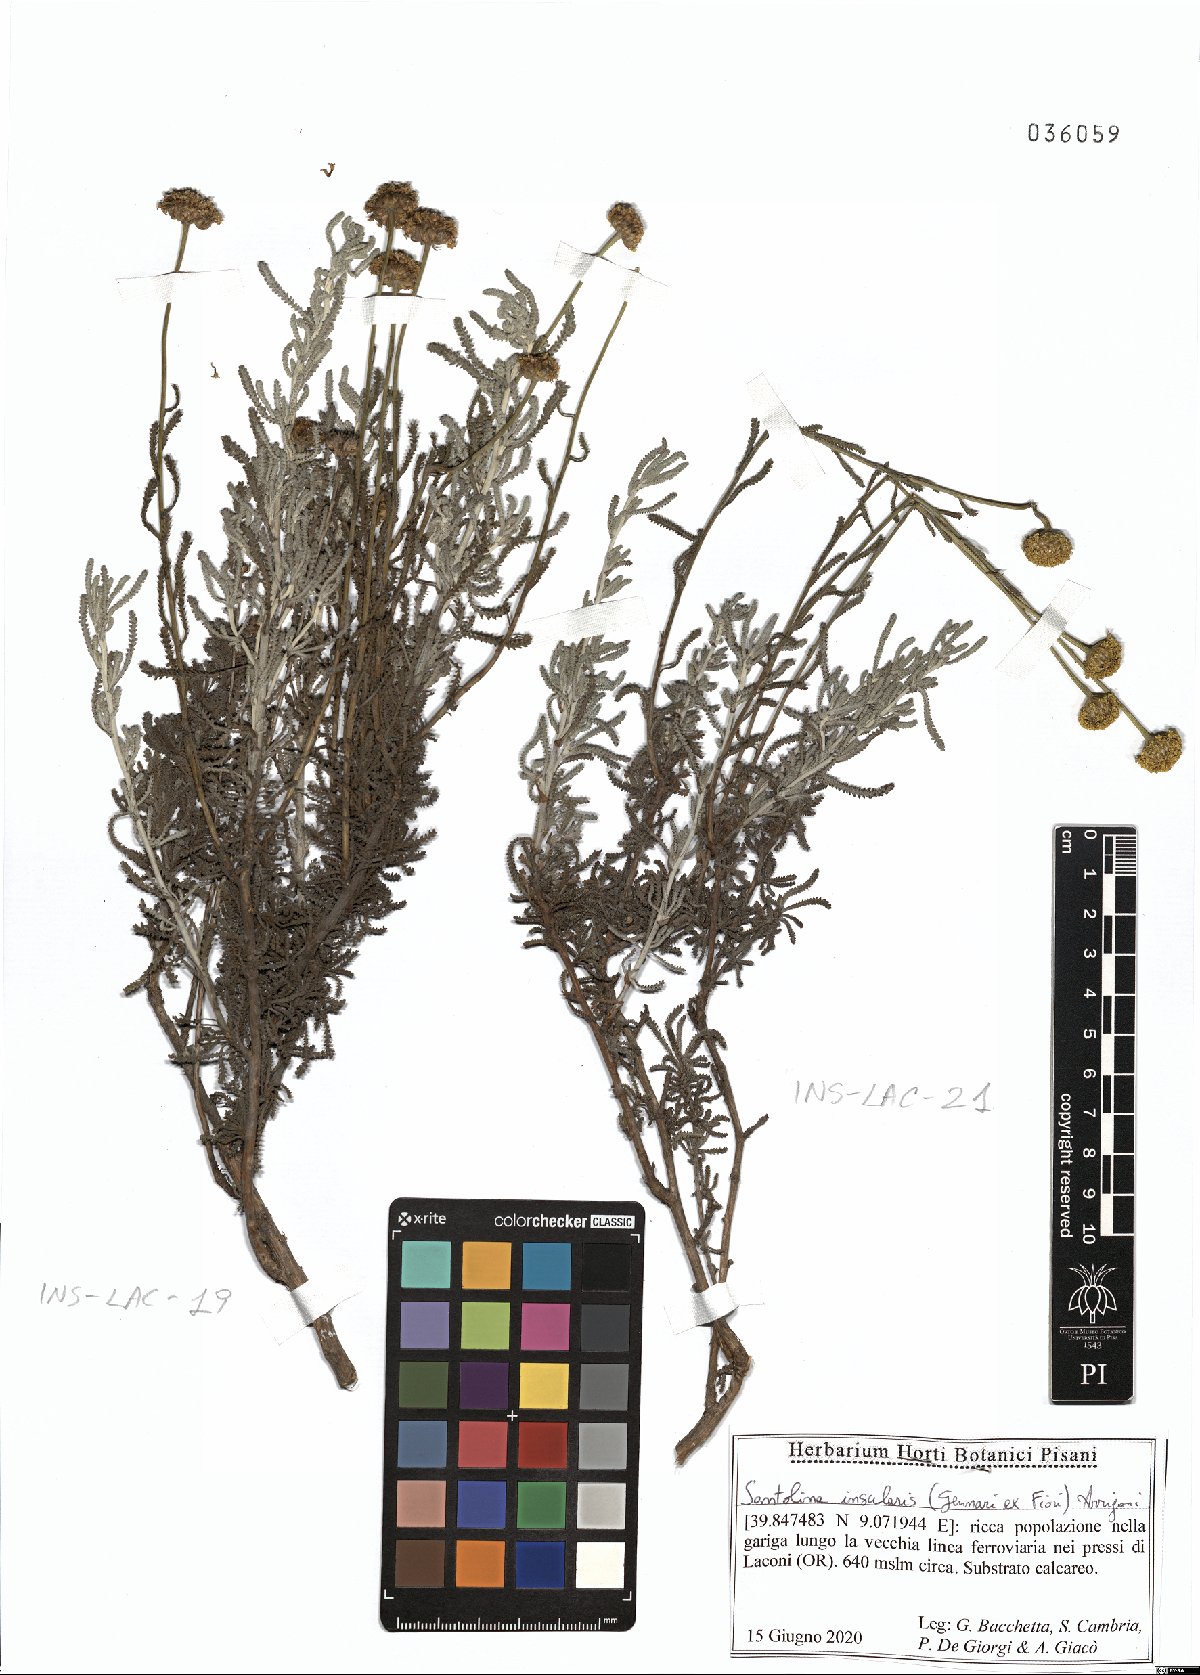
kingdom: Plantae
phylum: Tracheophyta
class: Magnoliopsida
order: Asterales
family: Asteraceae
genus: Santolina
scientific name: Santolina insularis
